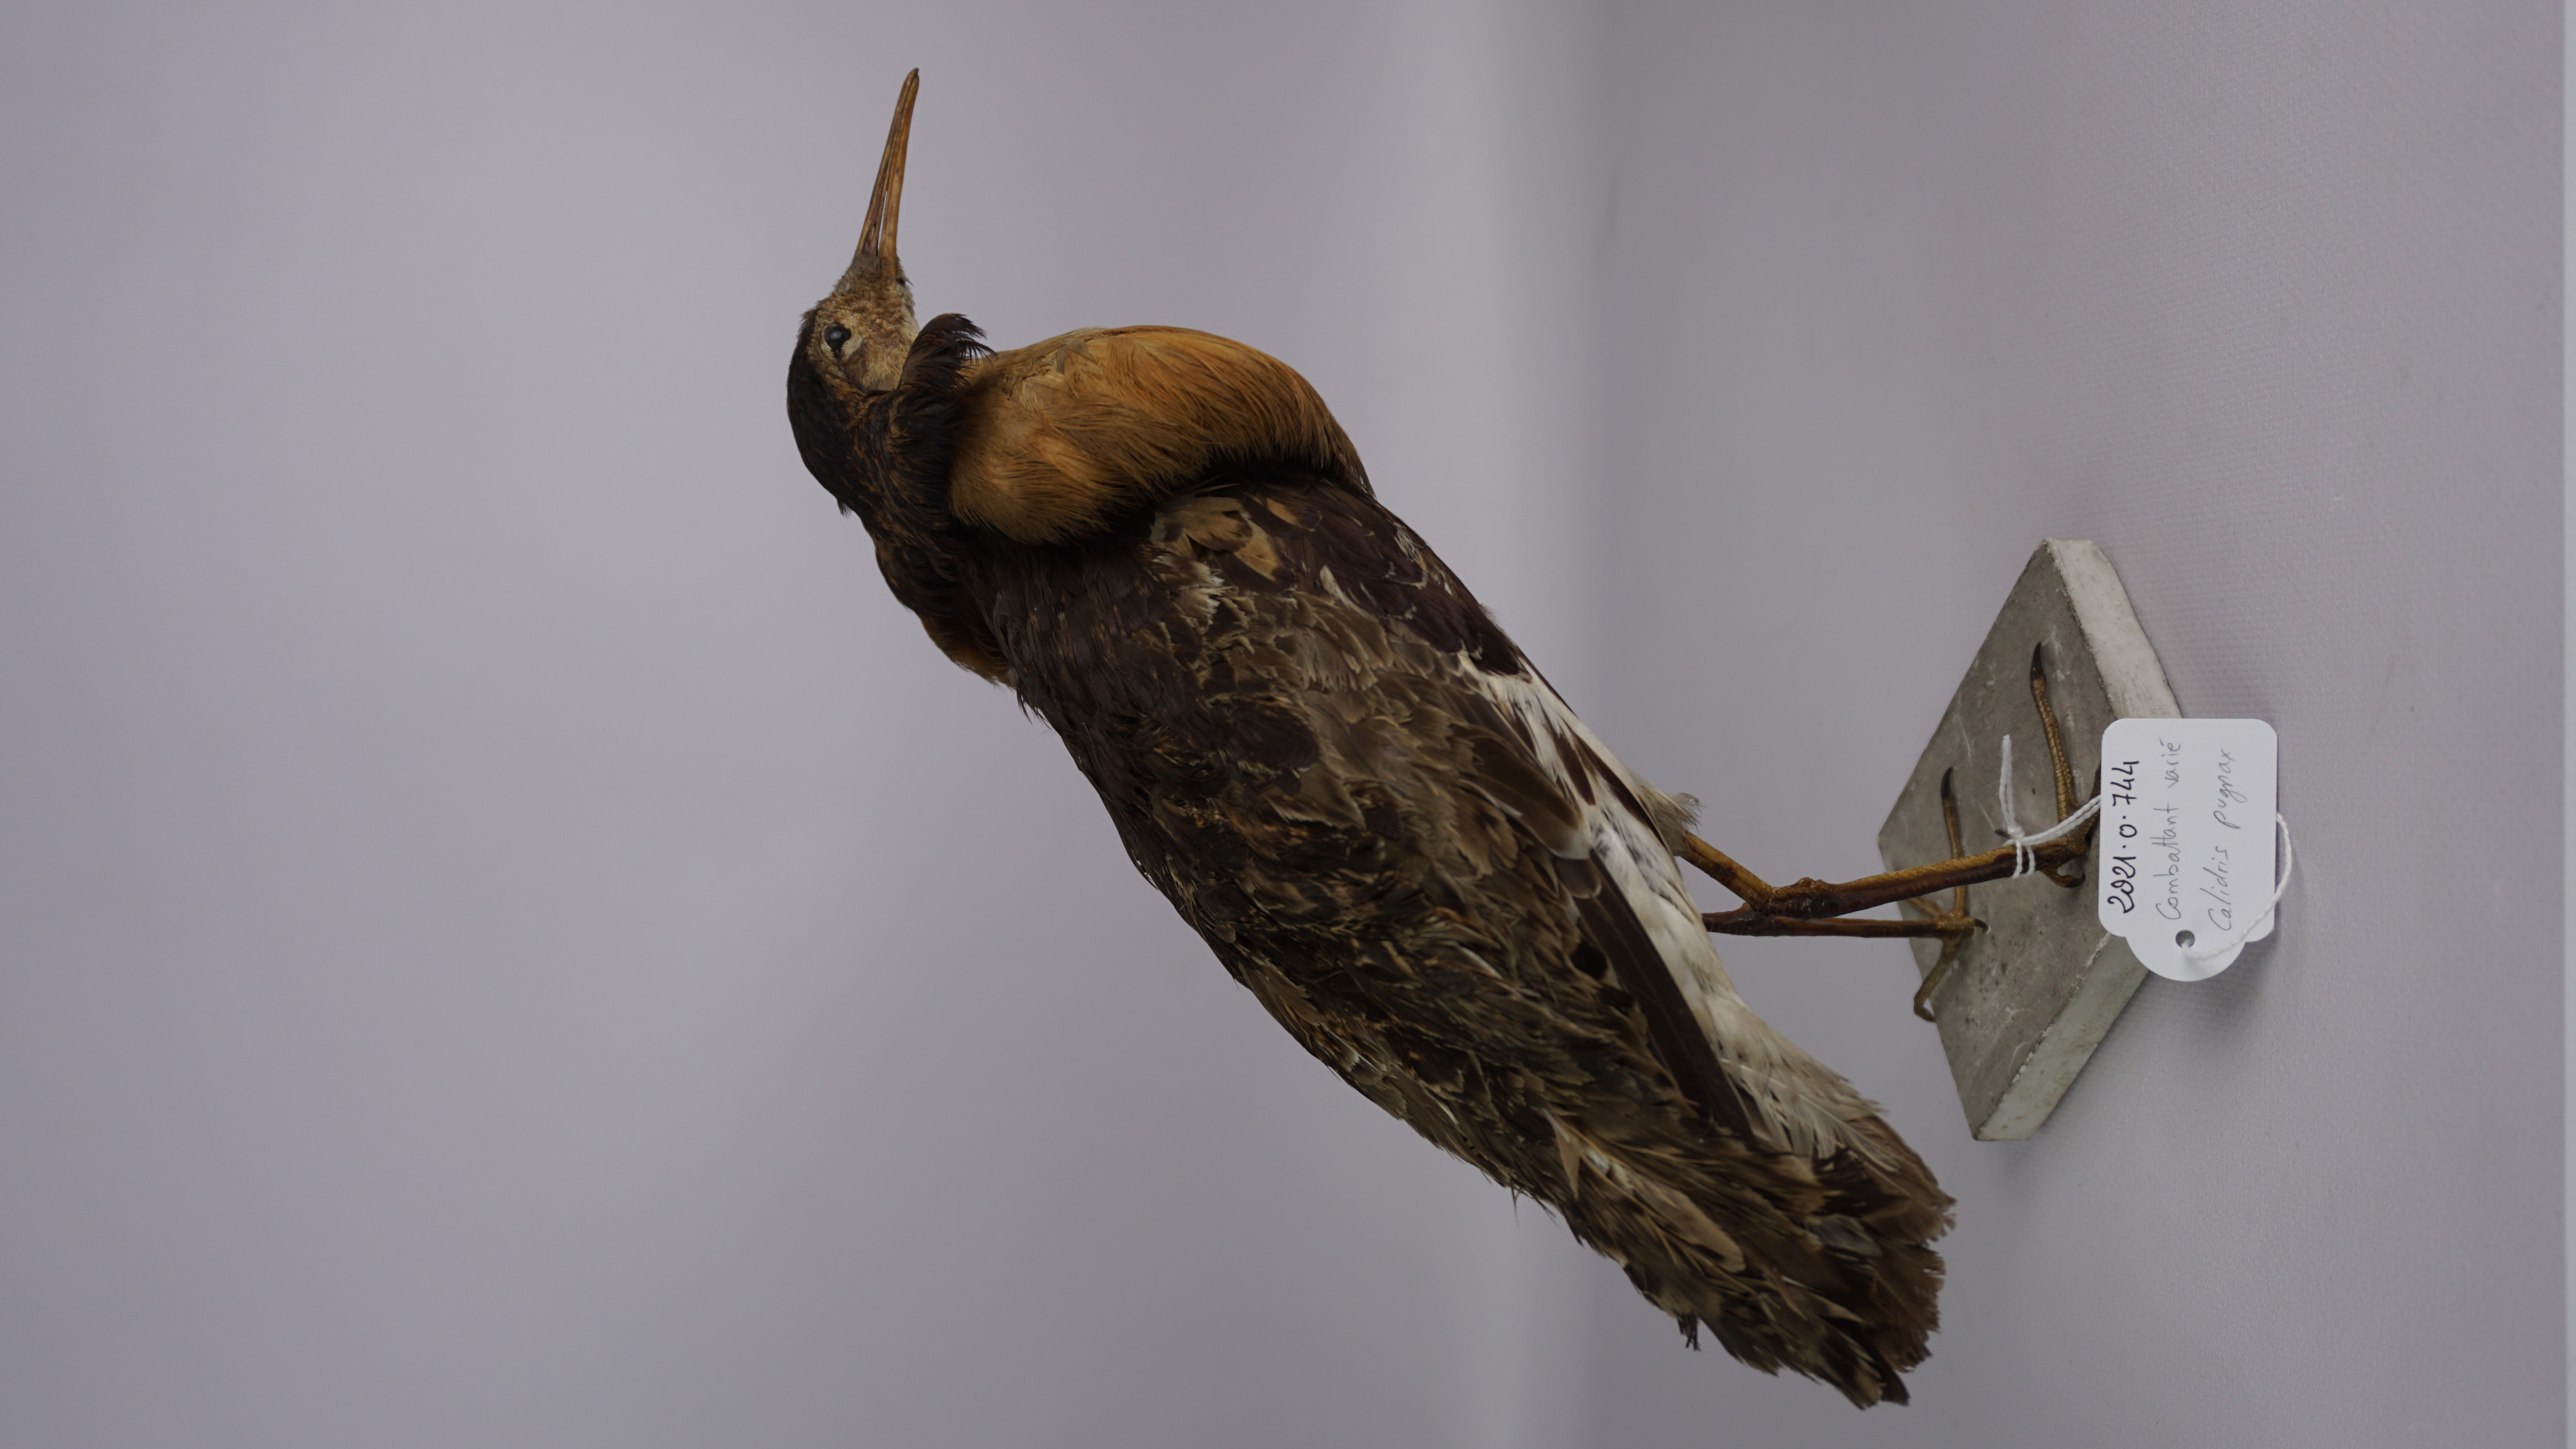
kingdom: Animalia
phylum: Chordata
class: Aves
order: Charadriiformes
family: Scolopacidae
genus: Calidris
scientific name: Calidris pugnax
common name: Ruff
